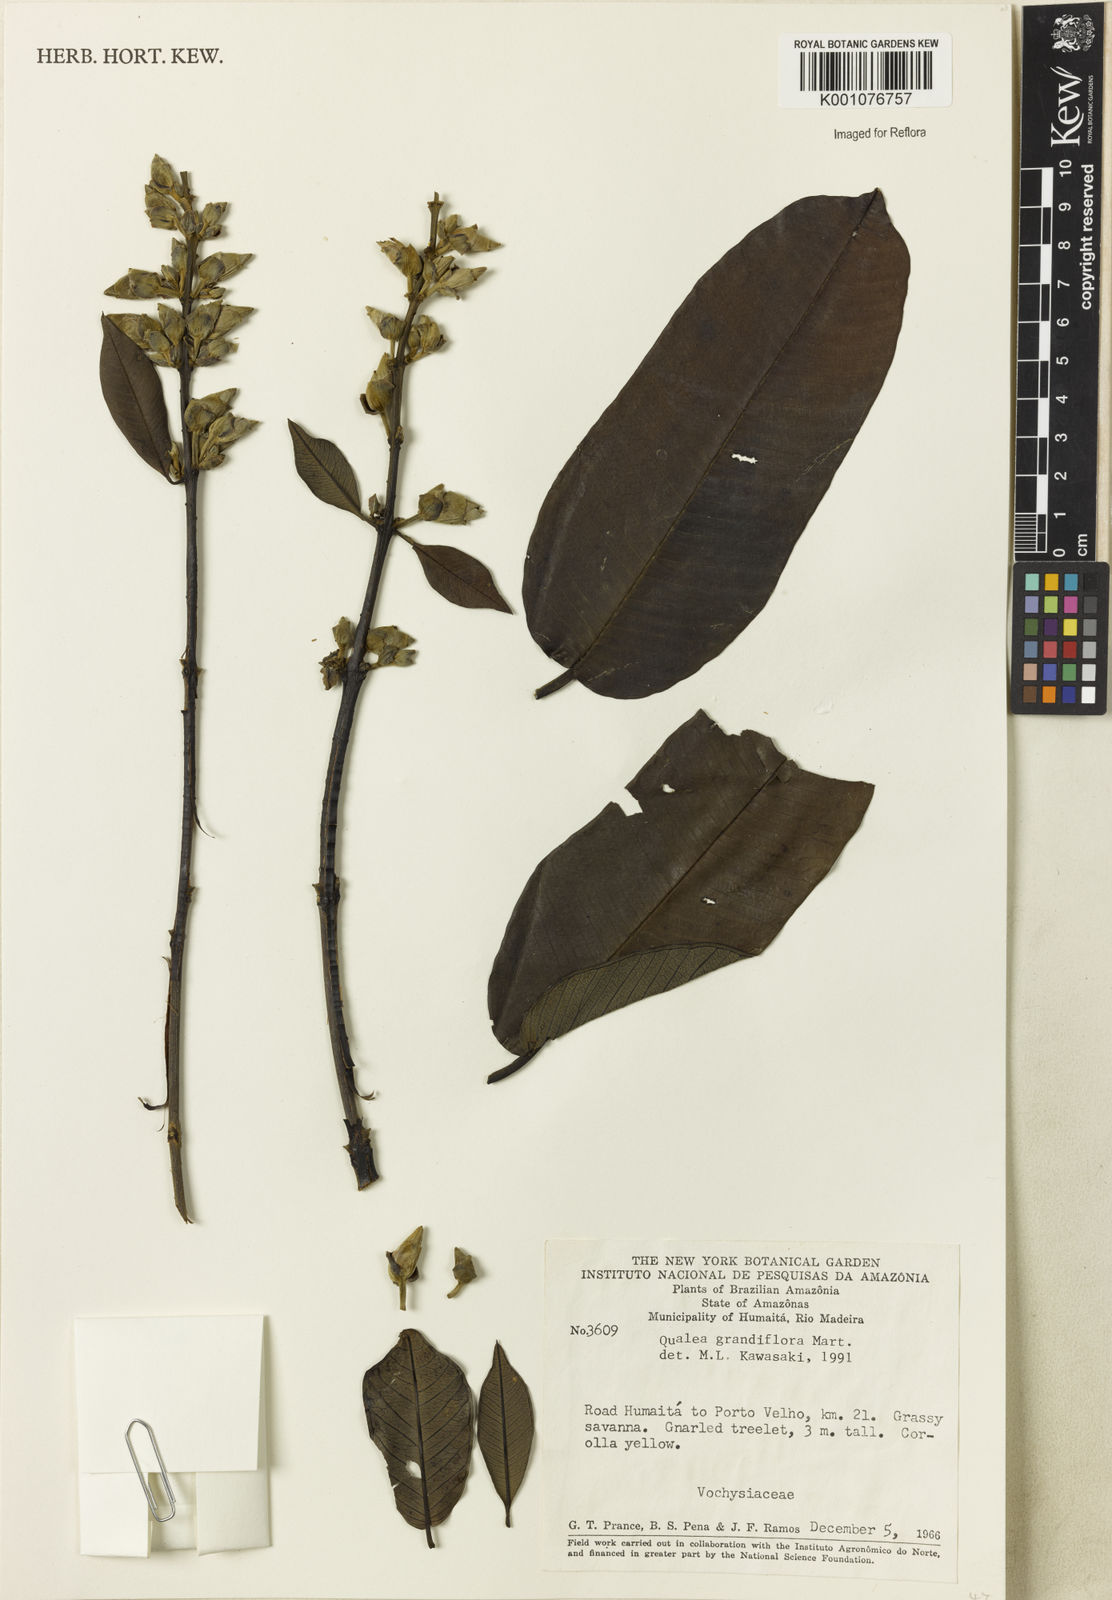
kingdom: Plantae
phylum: Tracheophyta
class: Magnoliopsida
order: Myrtales
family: Vochysiaceae
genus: Qualea
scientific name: Qualea grandiflora
